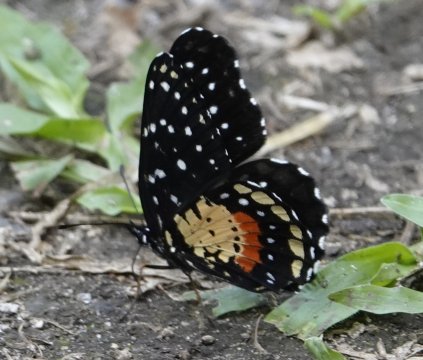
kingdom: Animalia
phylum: Arthropoda
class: Insecta
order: Lepidoptera
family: Nymphalidae
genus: Chlosyne
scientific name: Chlosyne janais
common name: Crimson Patch
